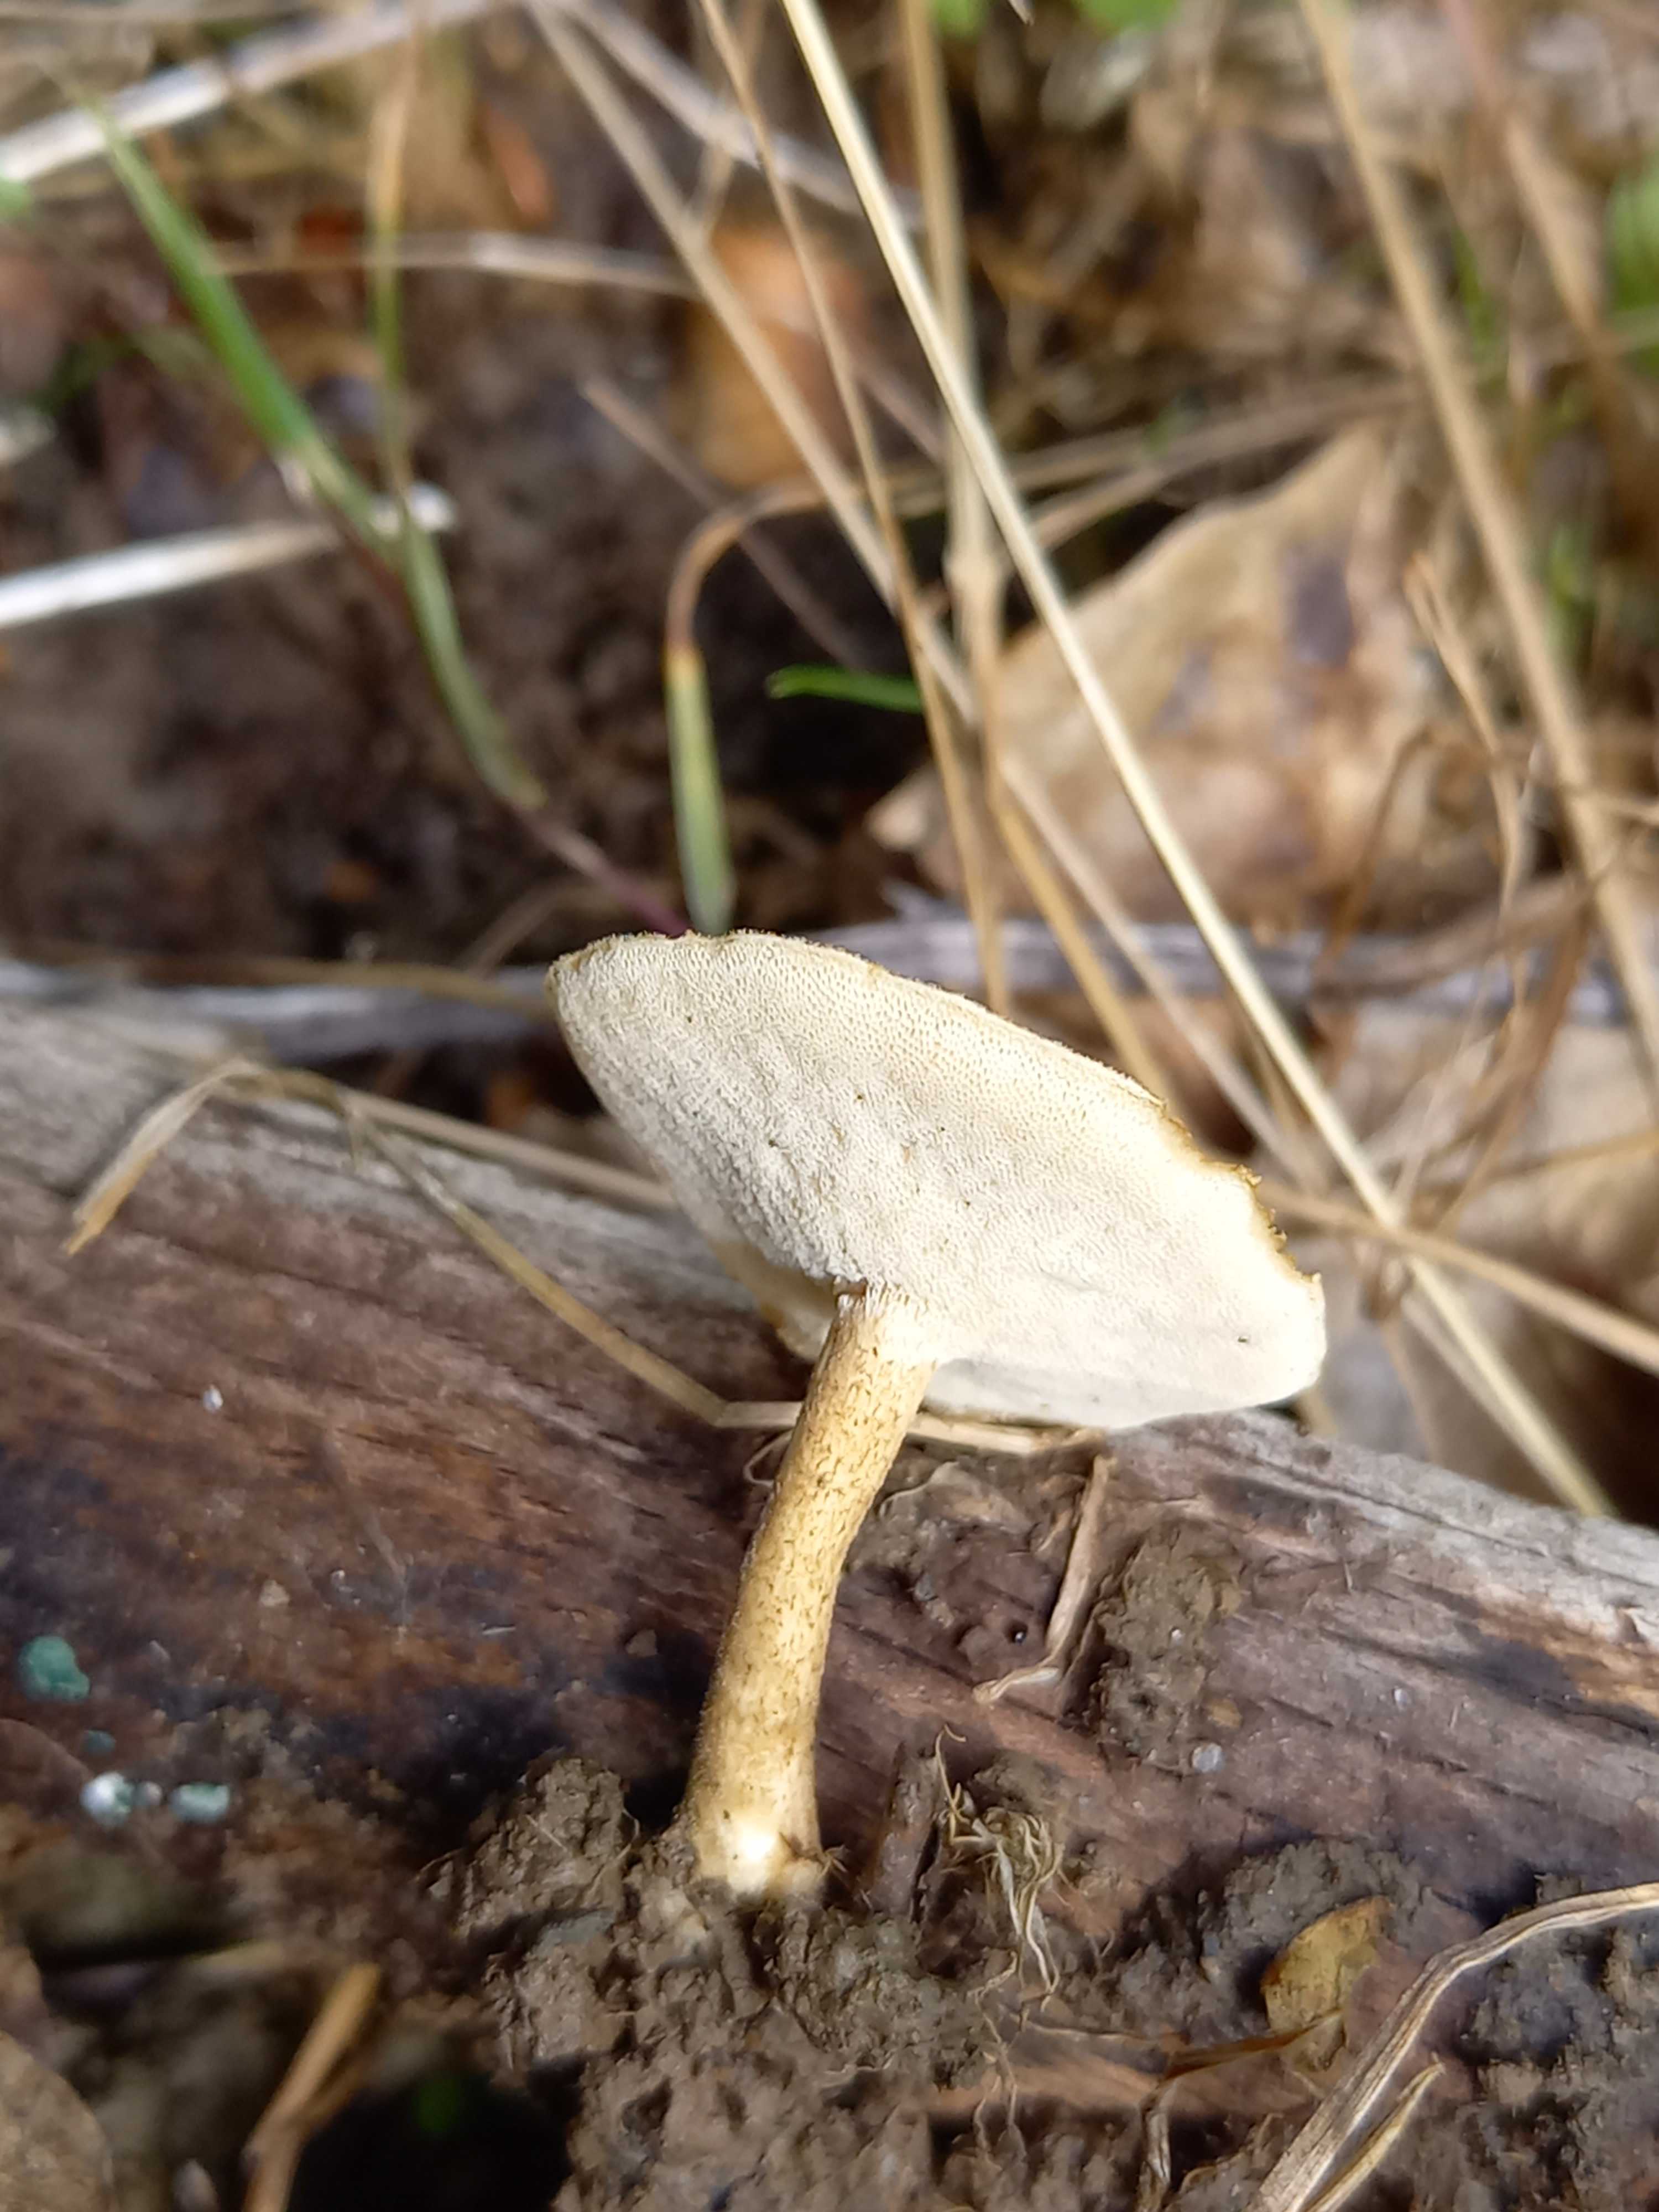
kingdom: Fungi
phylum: Basidiomycota
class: Agaricomycetes
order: Polyporales
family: Polyporaceae
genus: Lentinus
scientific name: Lentinus substrictus
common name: forårs-stilkporesvamp
